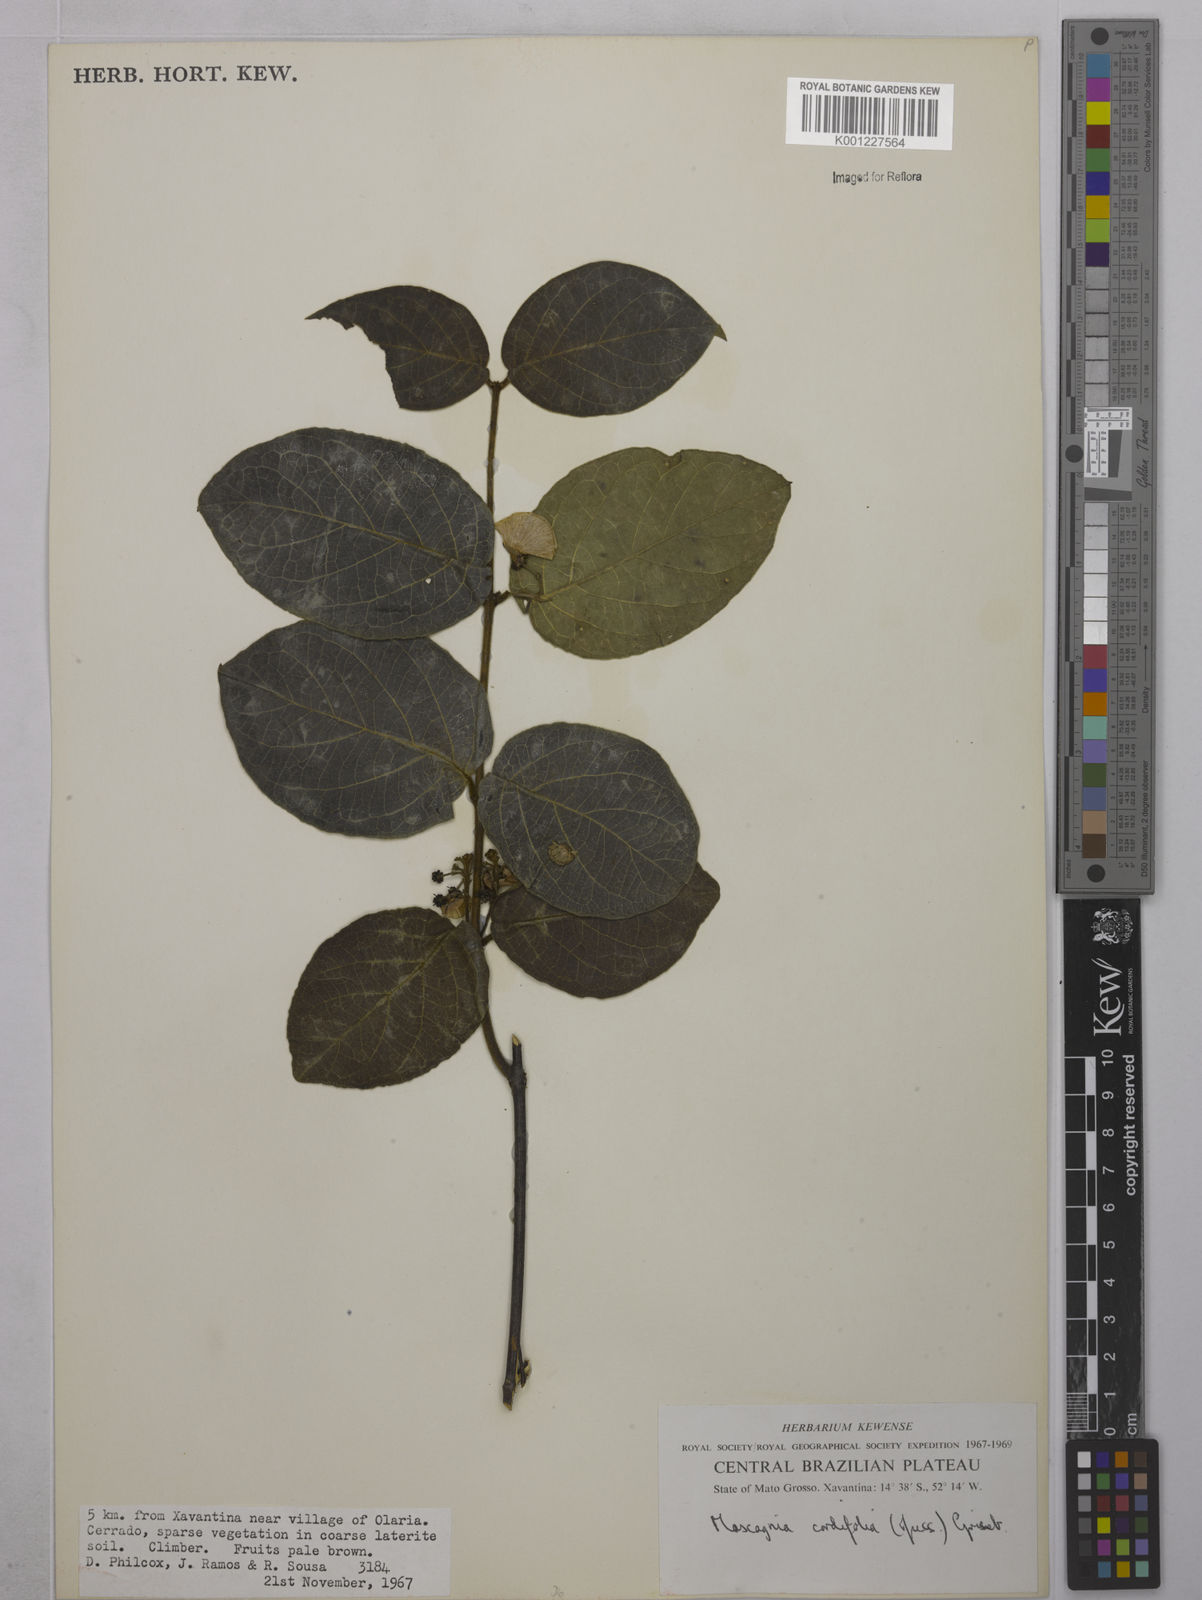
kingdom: Plantae
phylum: Tracheophyta
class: Magnoliopsida
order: Malpighiales
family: Malpighiaceae
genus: Mascagnia
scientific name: Mascagnia cordifolia
